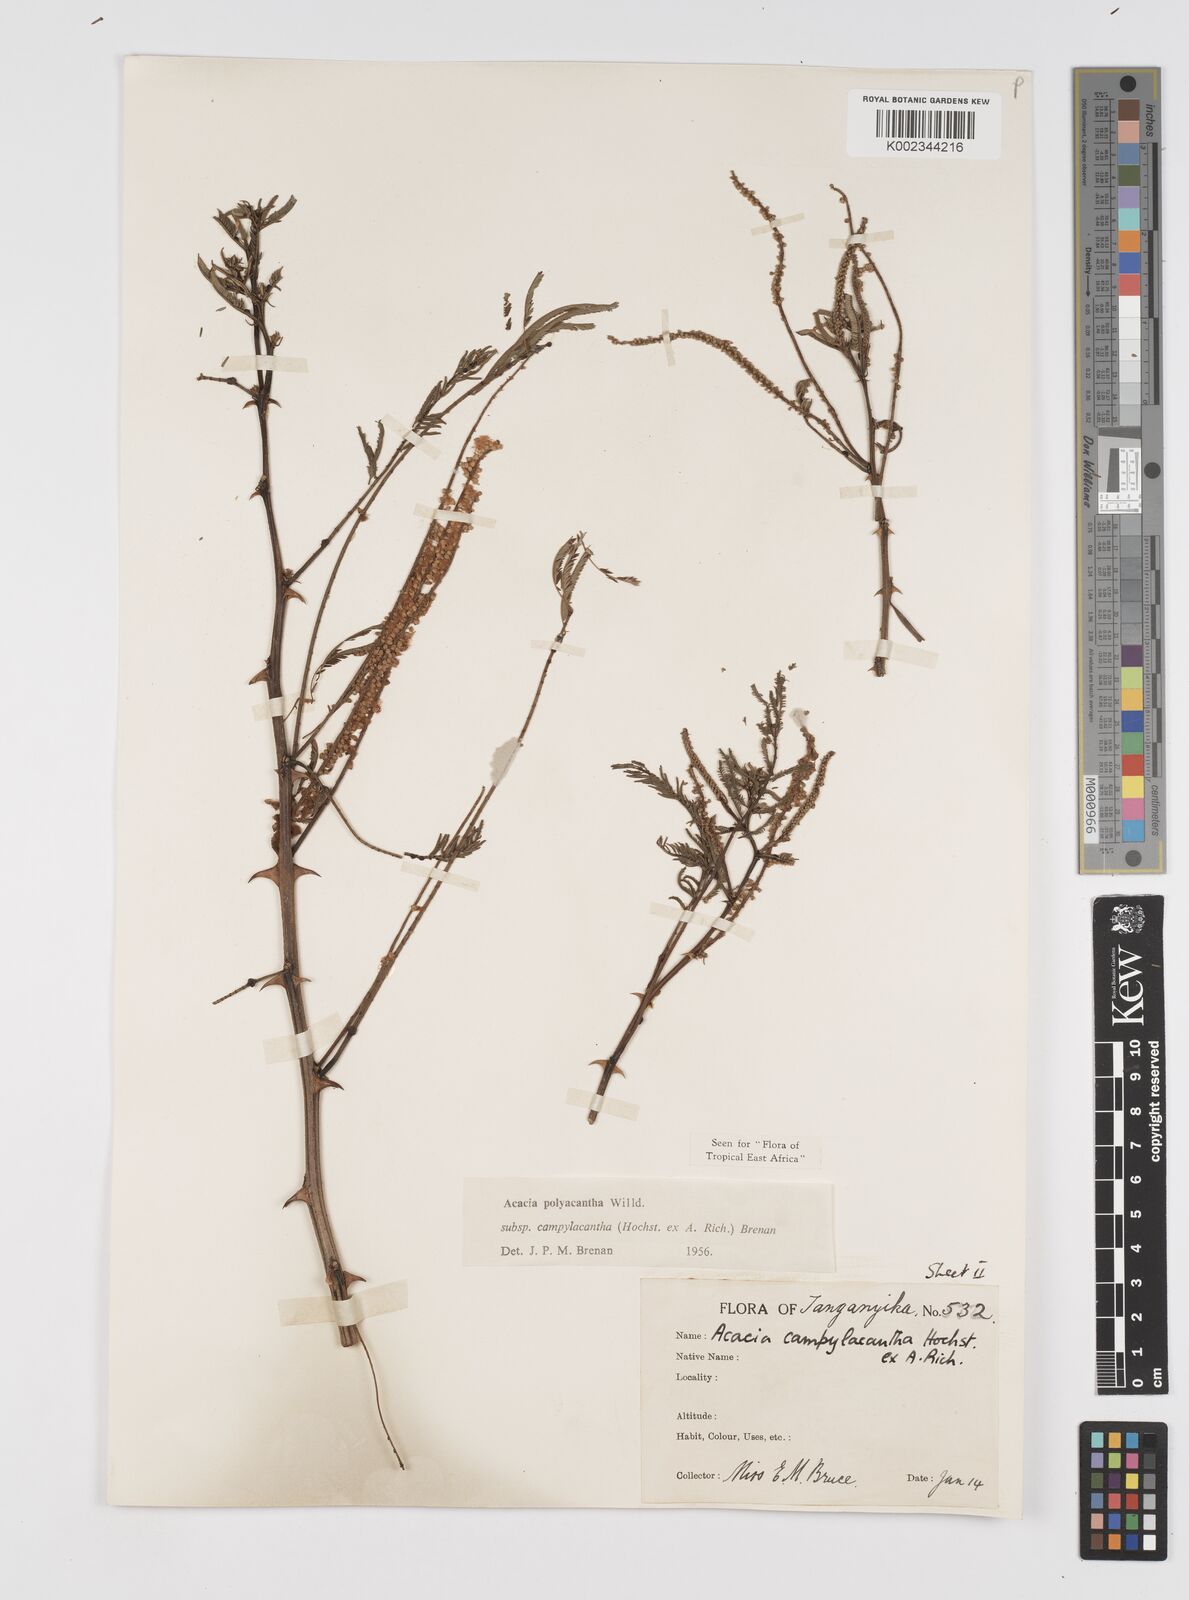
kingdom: Plantae
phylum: Tracheophyta
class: Magnoliopsida
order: Fabales
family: Fabaceae
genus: Senegalia
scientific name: Senegalia polyacantha
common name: Whitethorn
